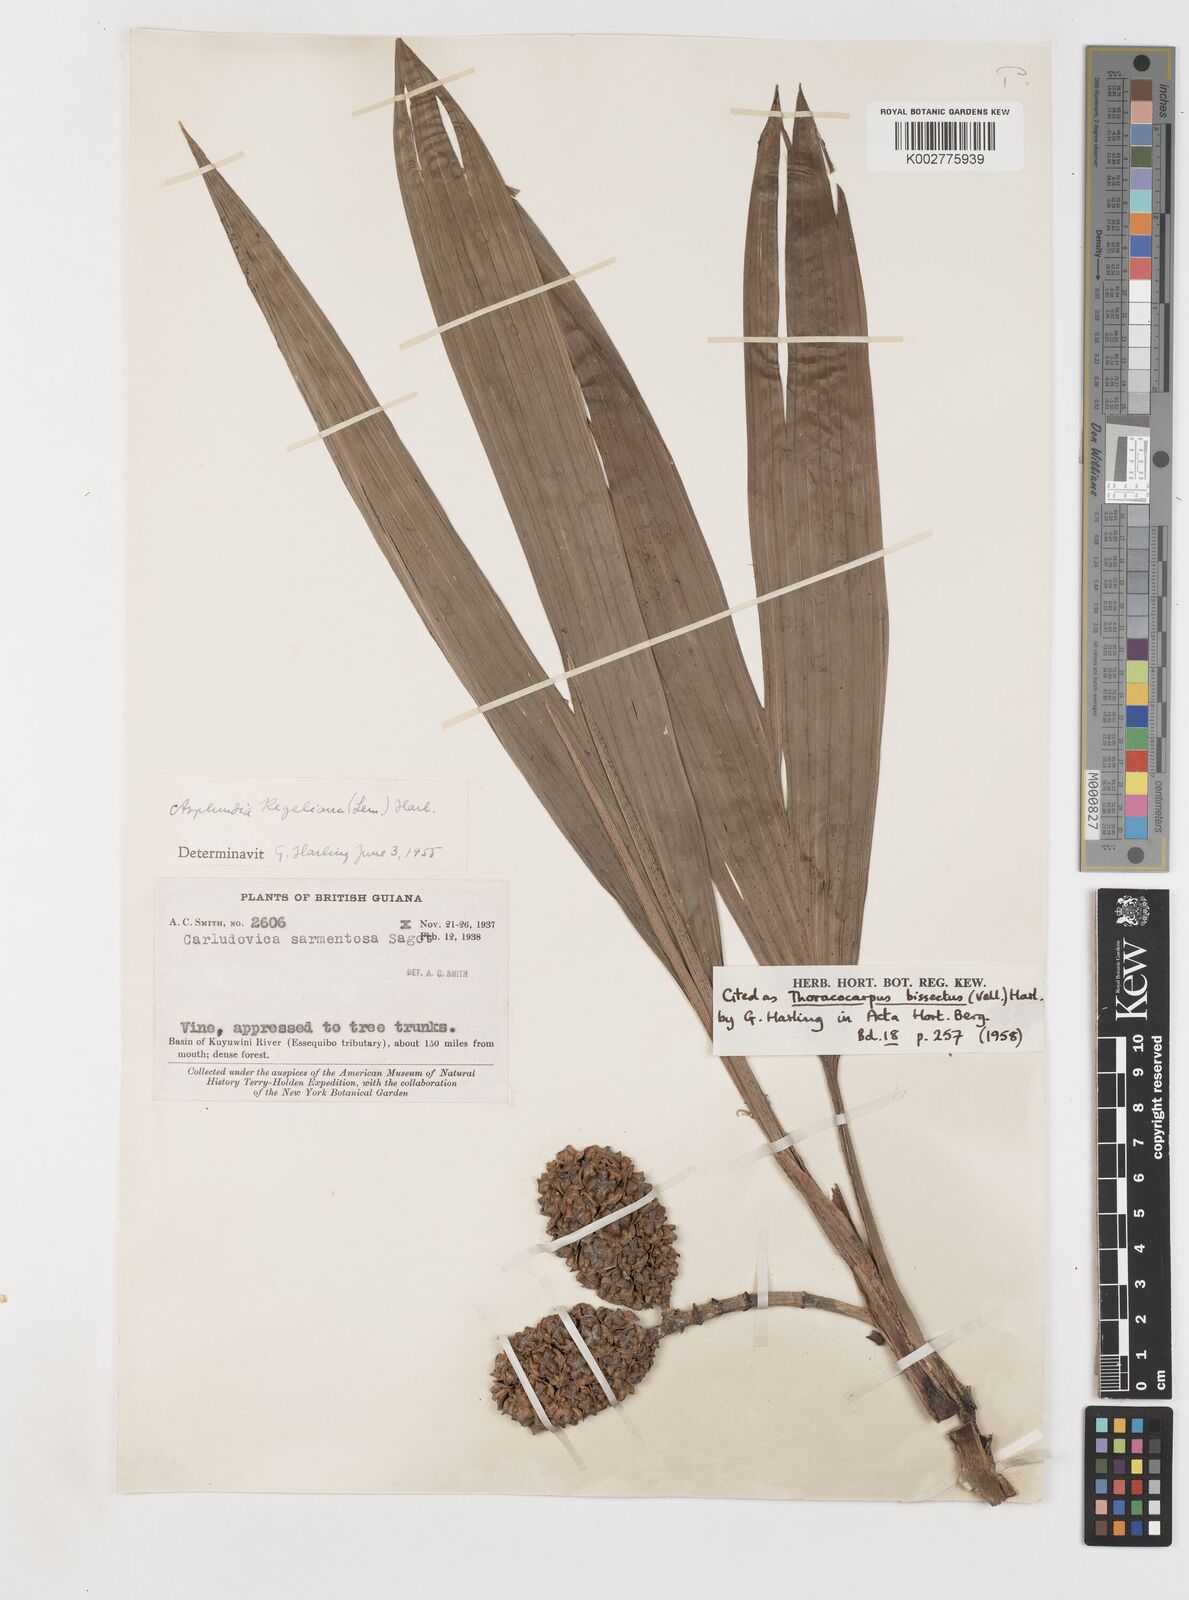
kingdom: Plantae
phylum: Tracheophyta
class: Liliopsida
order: Pandanales
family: Cyclanthaceae
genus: Thoracocarpus
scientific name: Thoracocarpus bissectus
